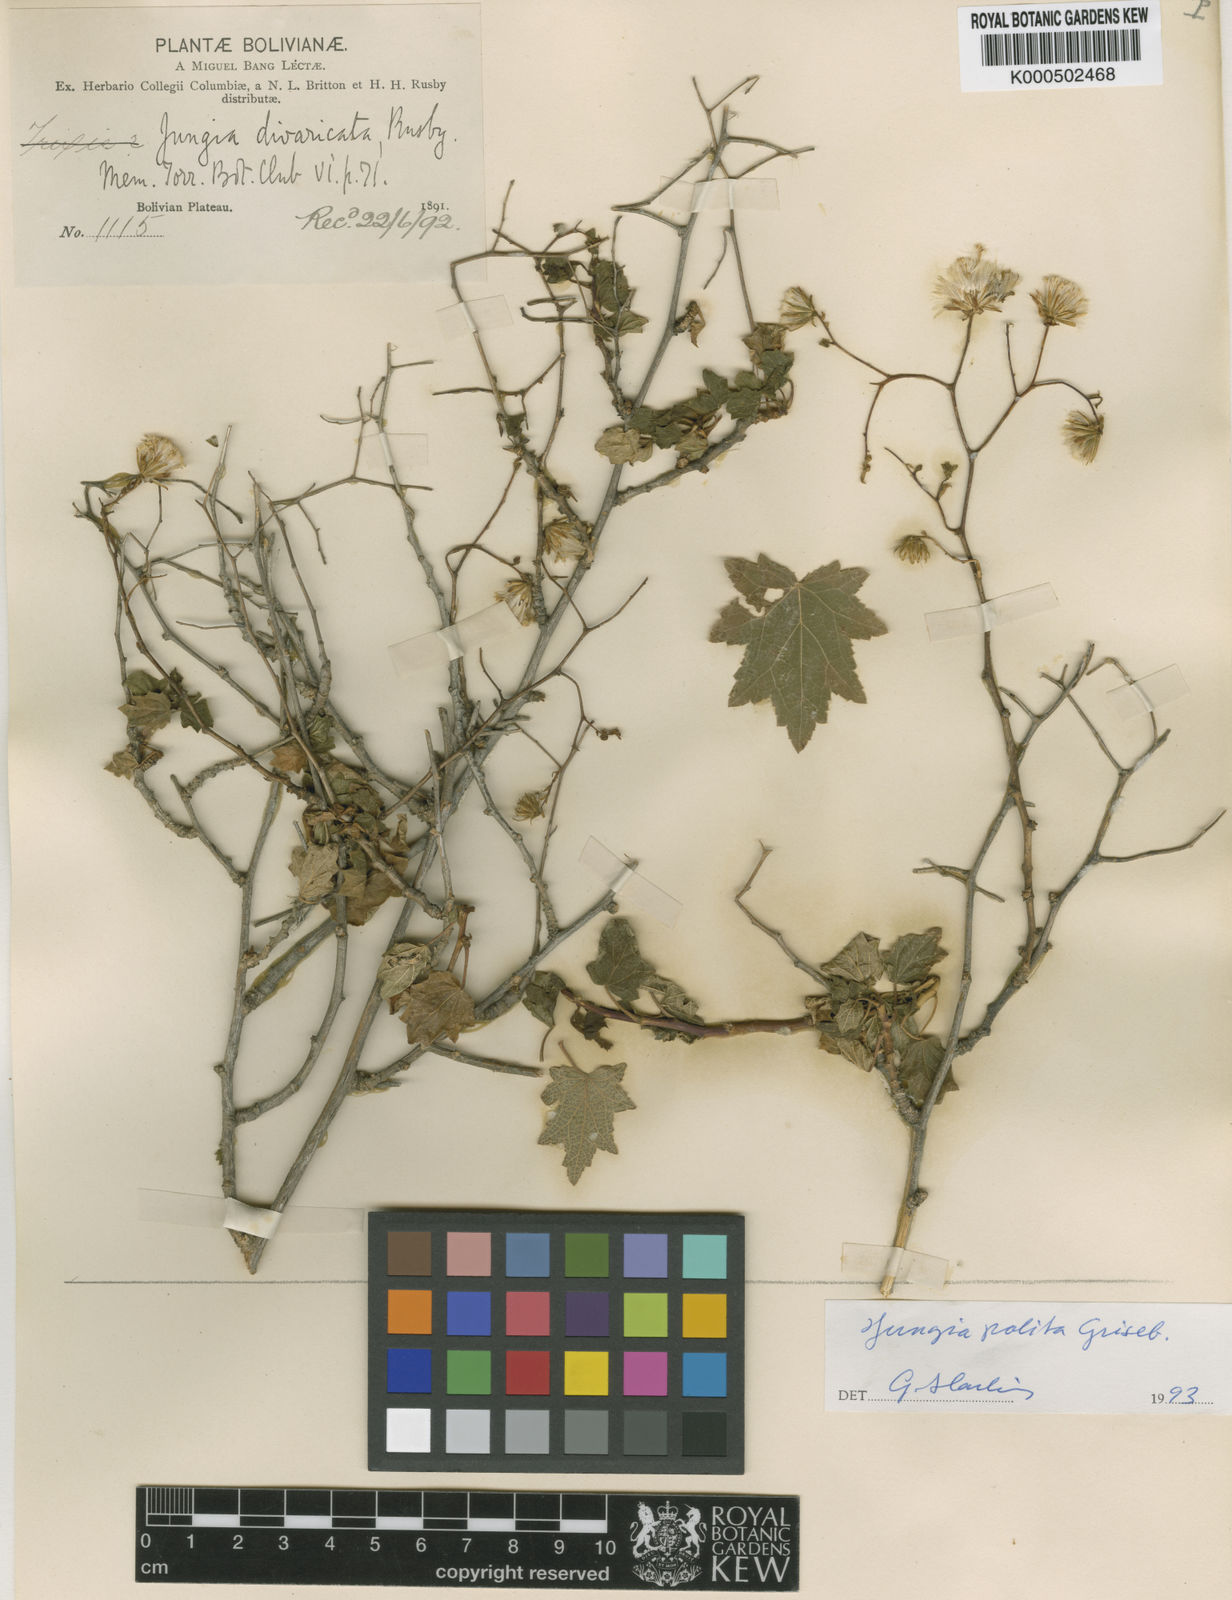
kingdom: Plantae
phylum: Tracheophyta
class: Magnoliopsida
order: Asterales
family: Asteraceae
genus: Jungia
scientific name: Jungia polita
